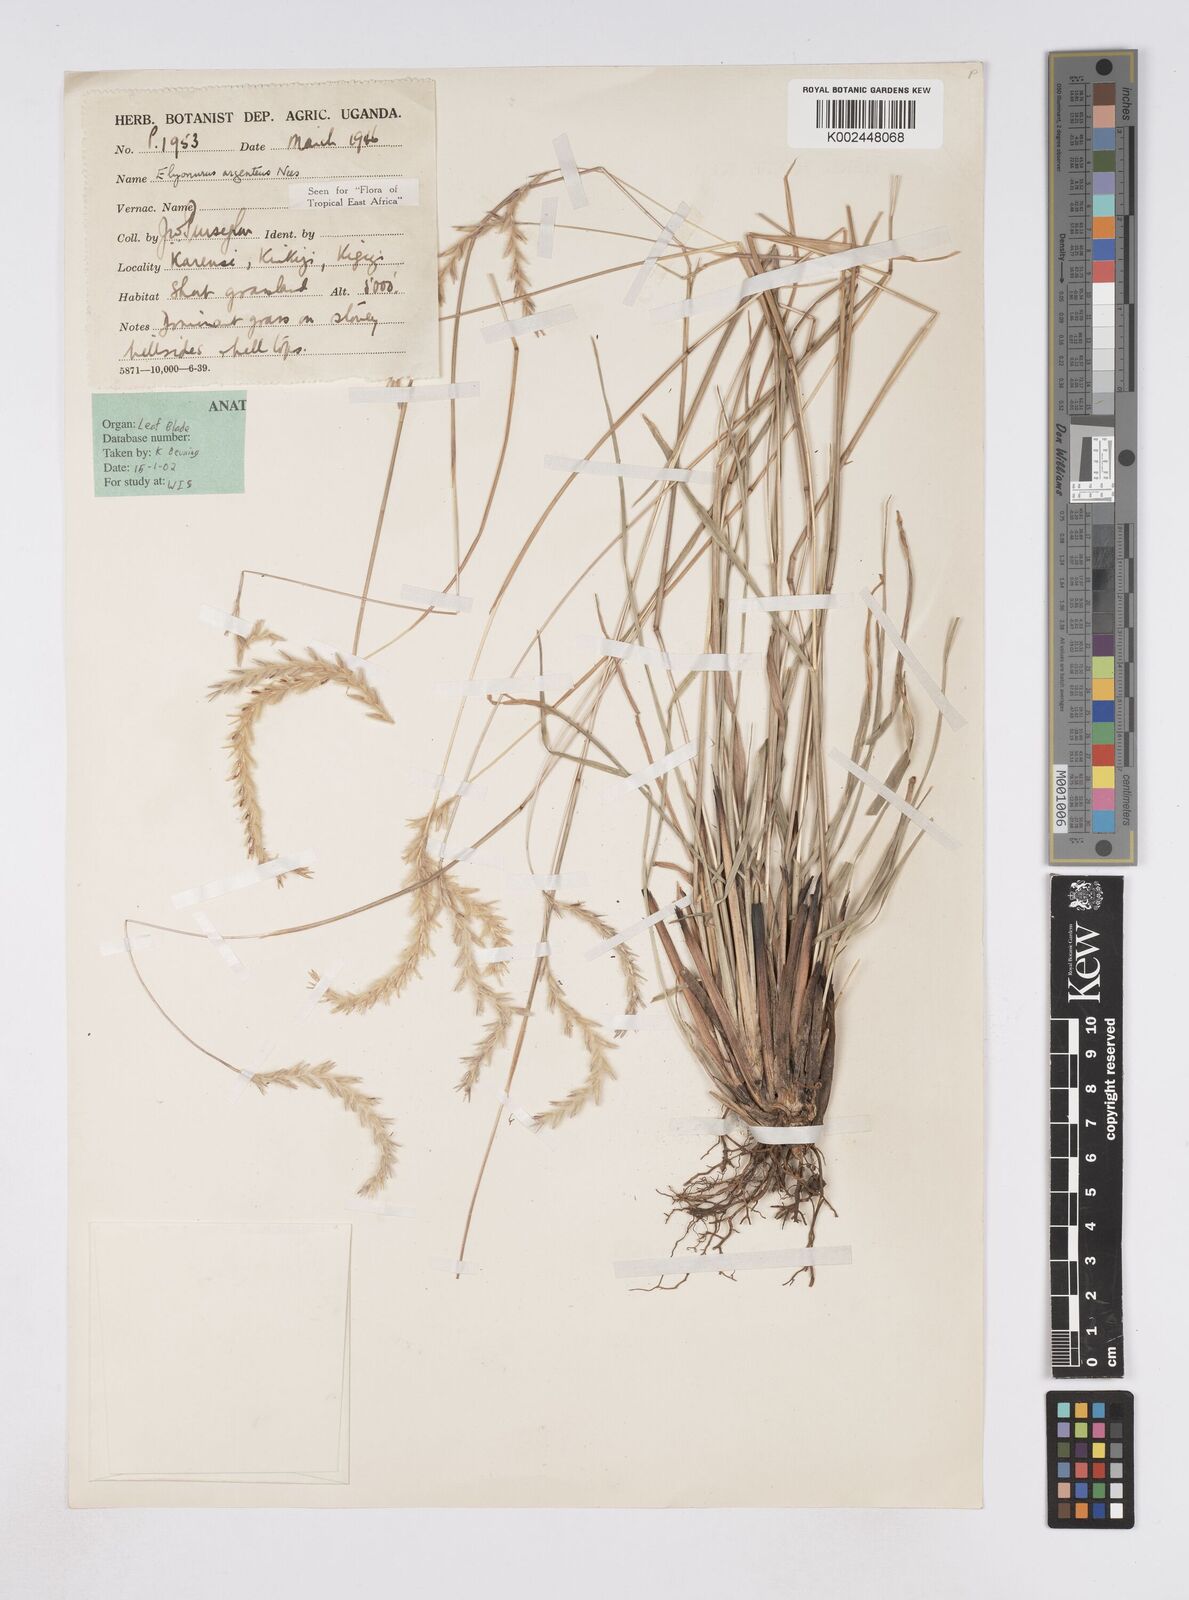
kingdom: Plantae
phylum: Tracheophyta
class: Liliopsida
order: Poales
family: Poaceae
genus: Elionurus
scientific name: Elionurus muticus
